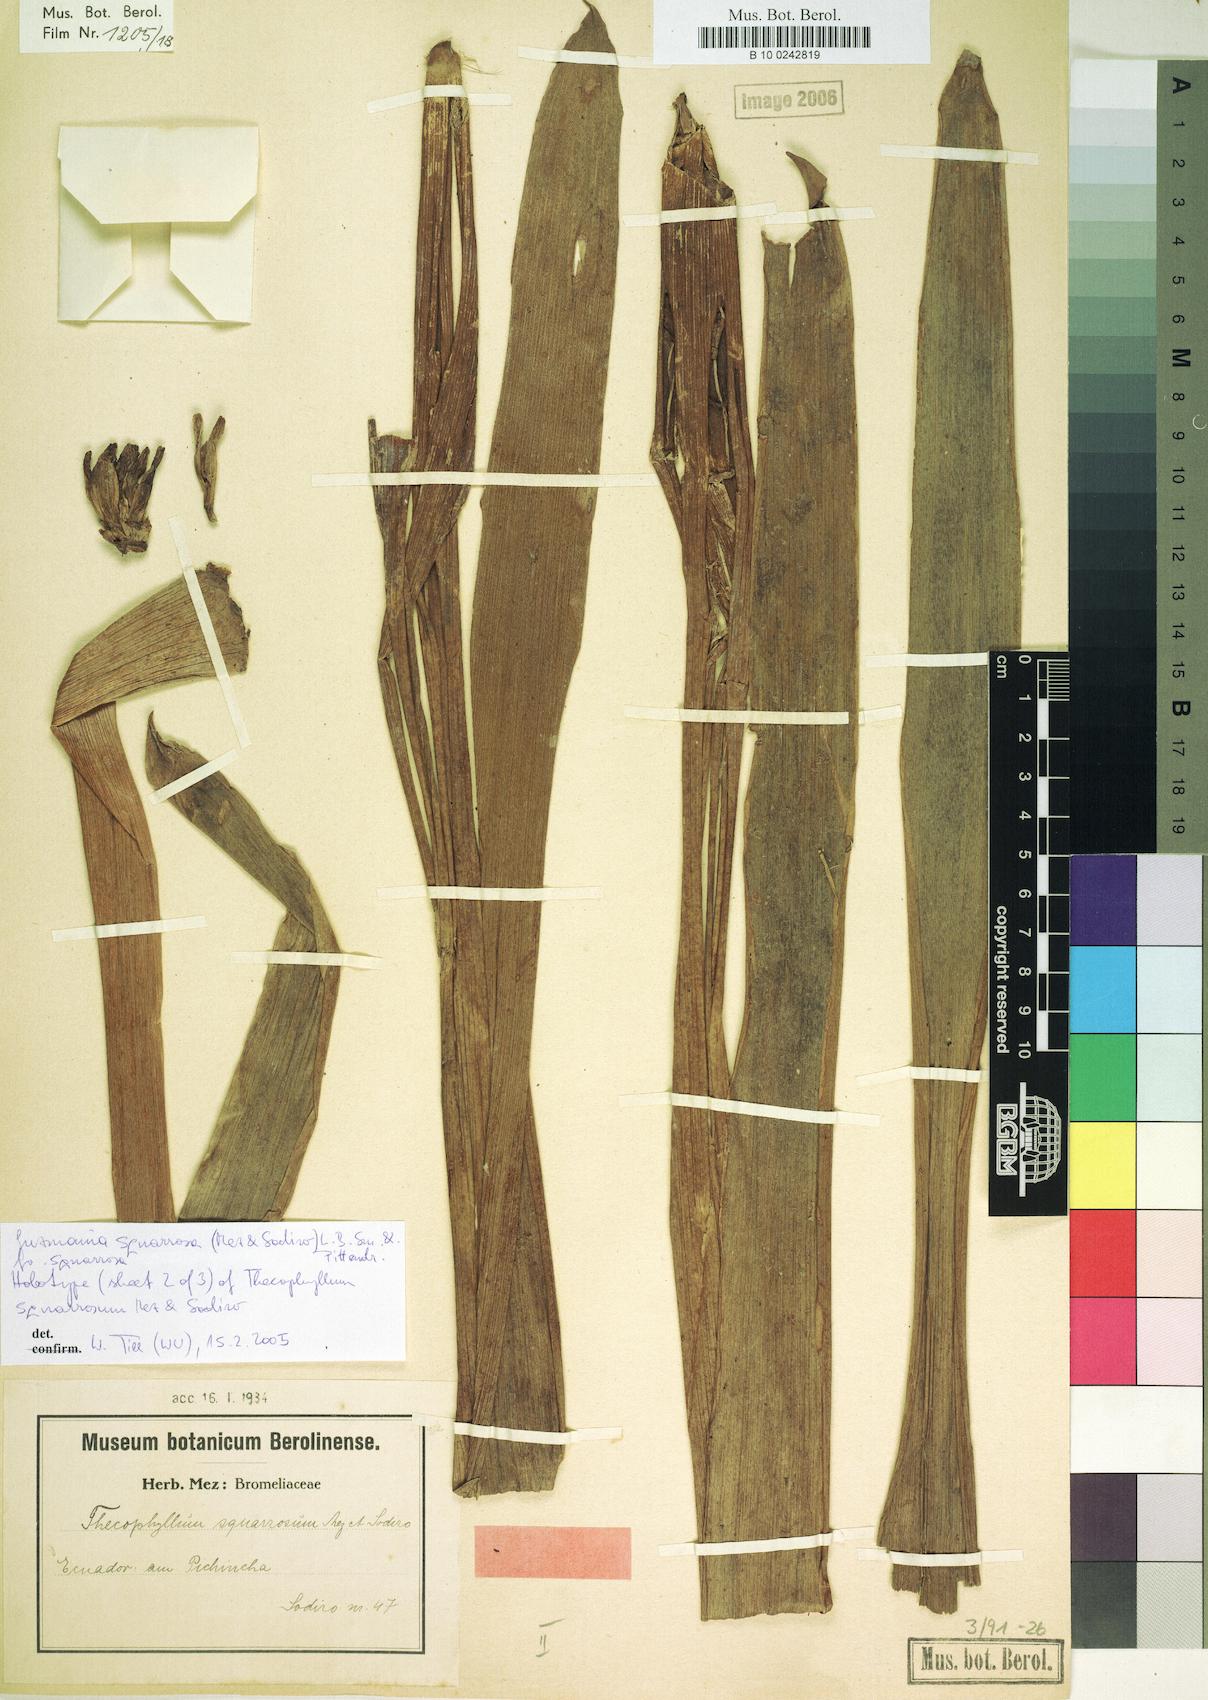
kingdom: Plantae
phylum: Tracheophyta
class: Liliopsida
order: Poales
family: Bromeliaceae
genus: Guzmania
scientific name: Guzmania squarrosa
